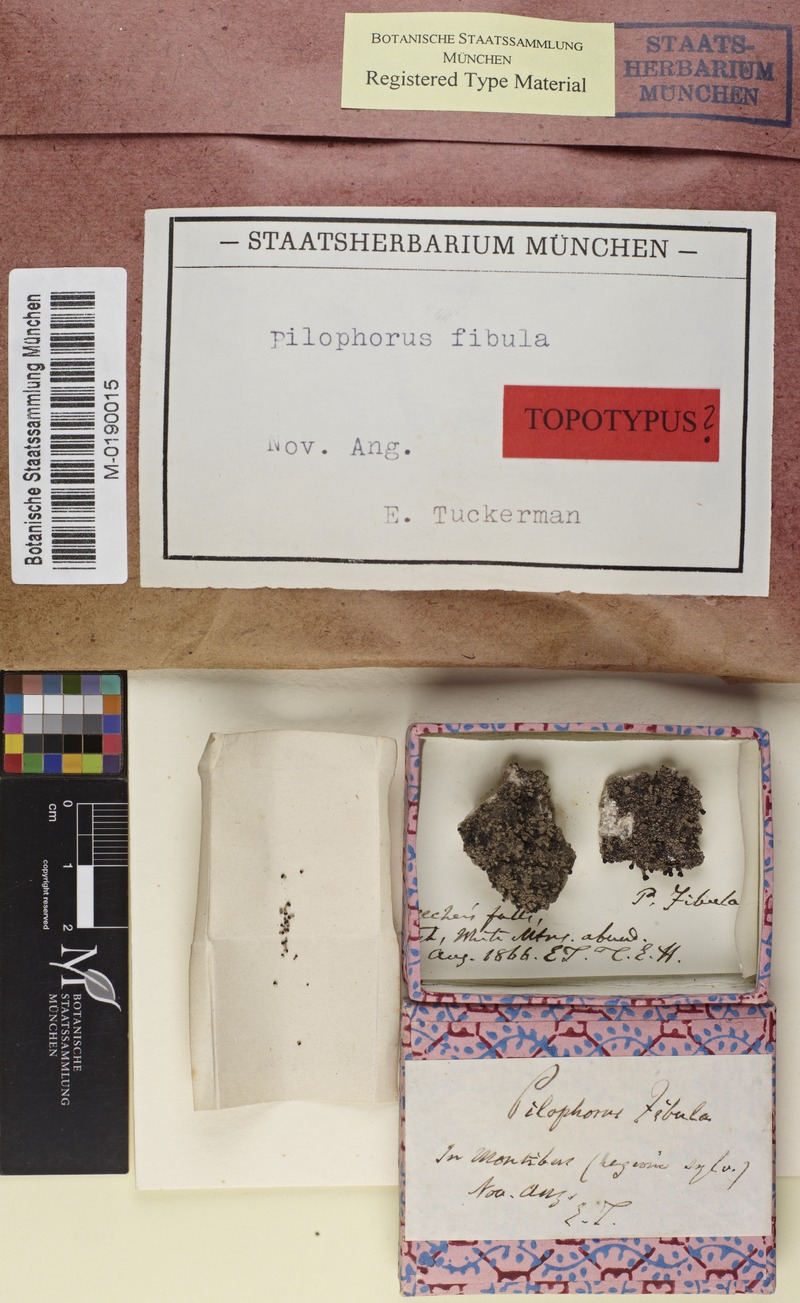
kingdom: Fungi
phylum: Ascomycota
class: Lecanoromycetes
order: Lecanorales
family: Cladoniaceae
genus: Pilophorus
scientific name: Pilophorus fibula
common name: Appalachian matchsticks
